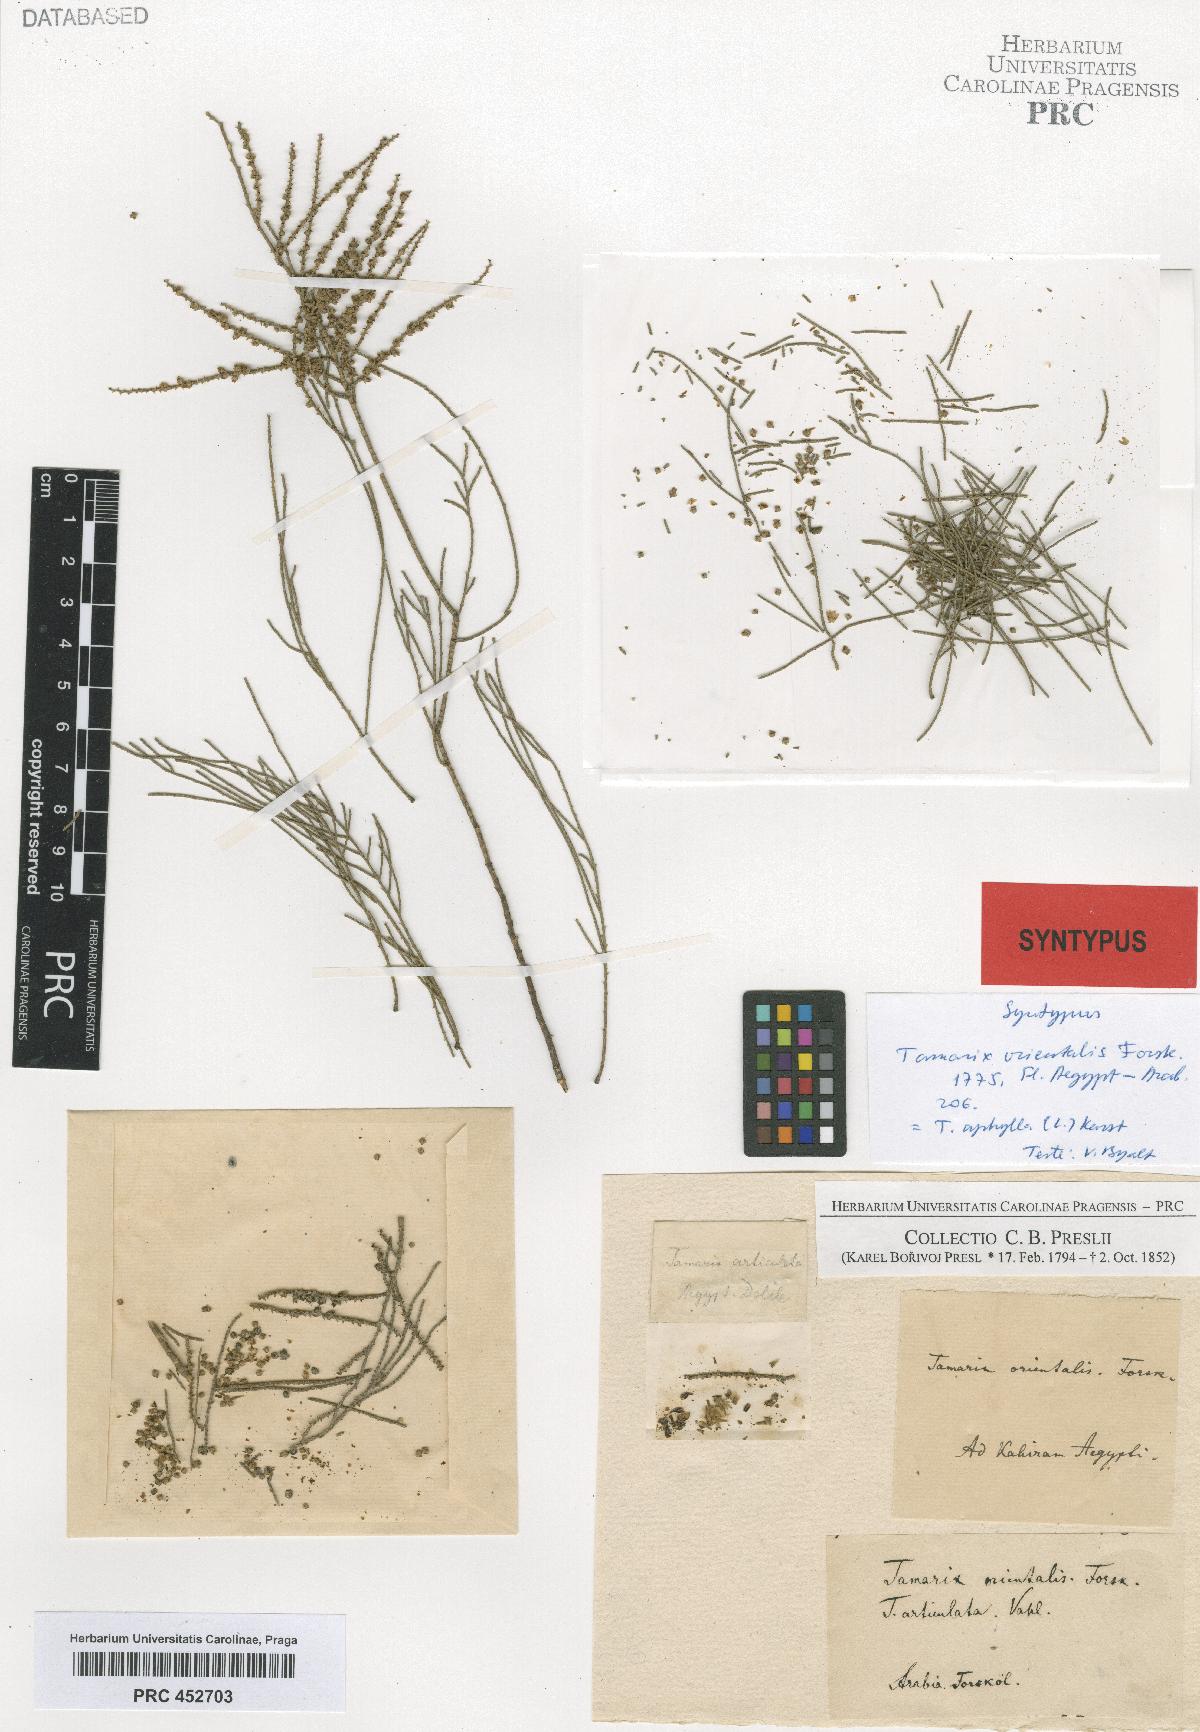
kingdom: Plantae
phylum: Tracheophyta
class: Magnoliopsida
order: Caryophyllales
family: Tamaricaceae
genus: Tamarix
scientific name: Tamarix
